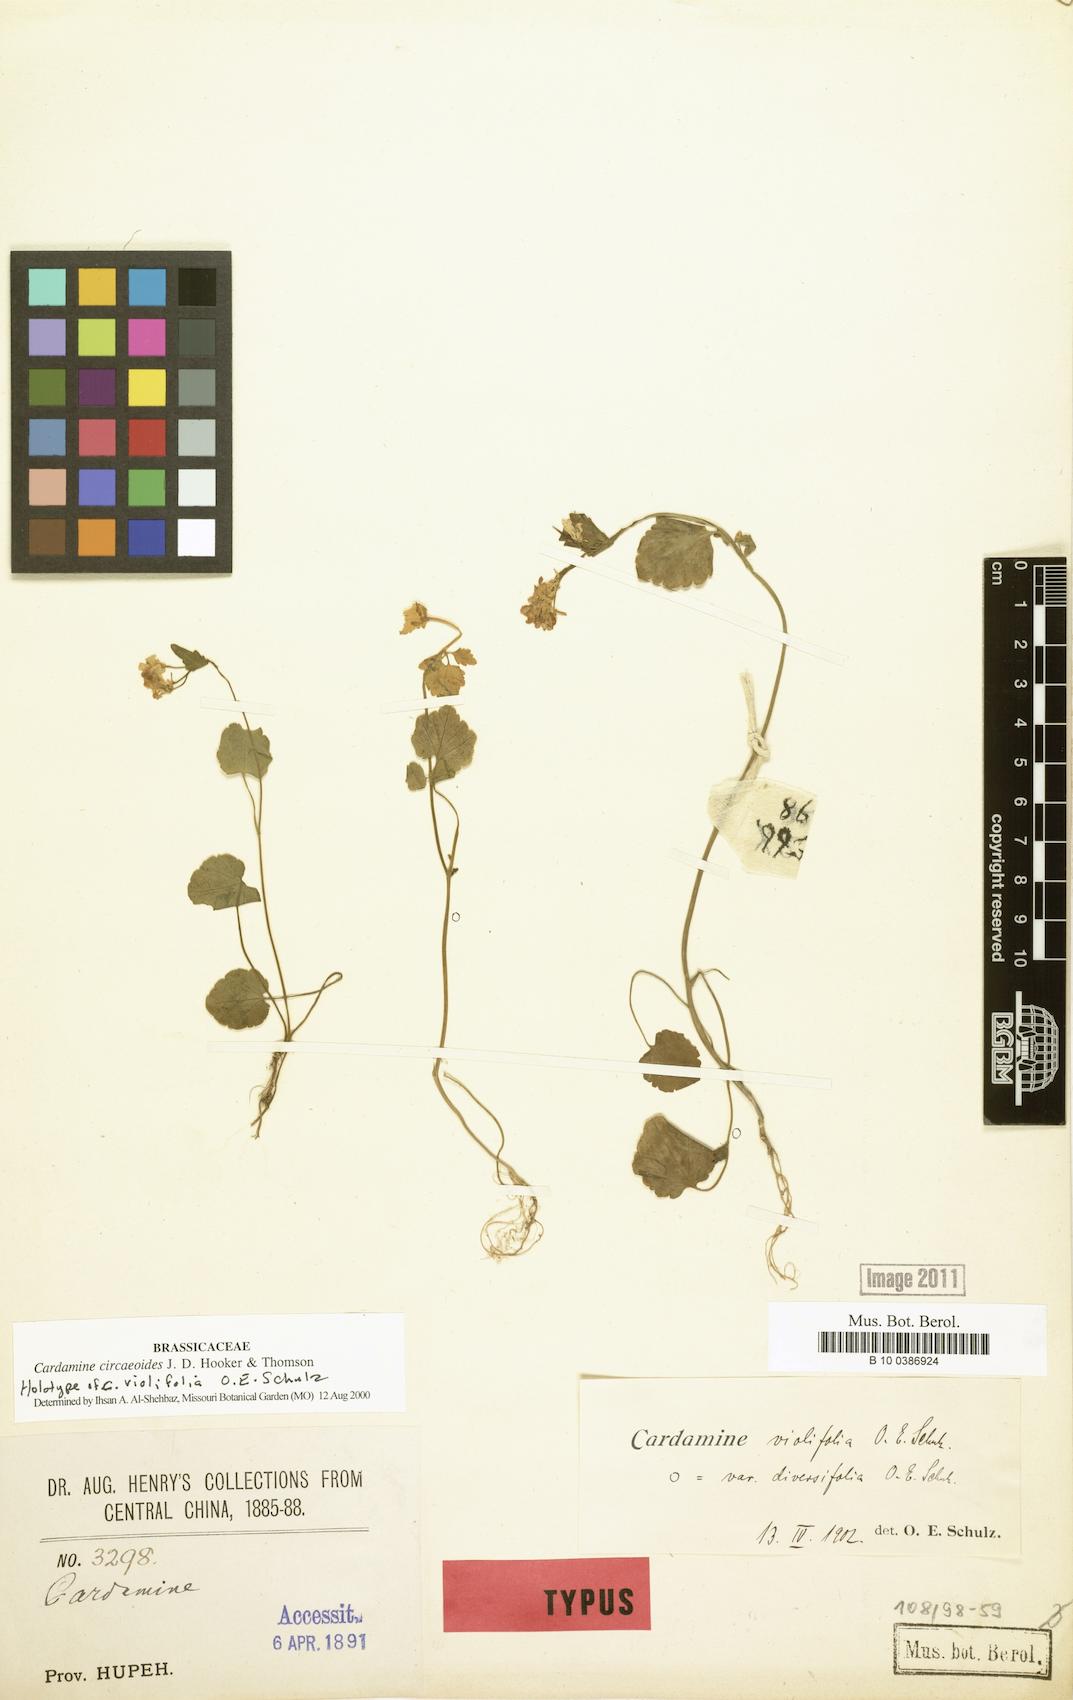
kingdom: Plantae
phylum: Tracheophyta
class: Magnoliopsida
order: Brassicales
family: Brassicaceae
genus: Cardamine
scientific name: Cardamine circaeoides
